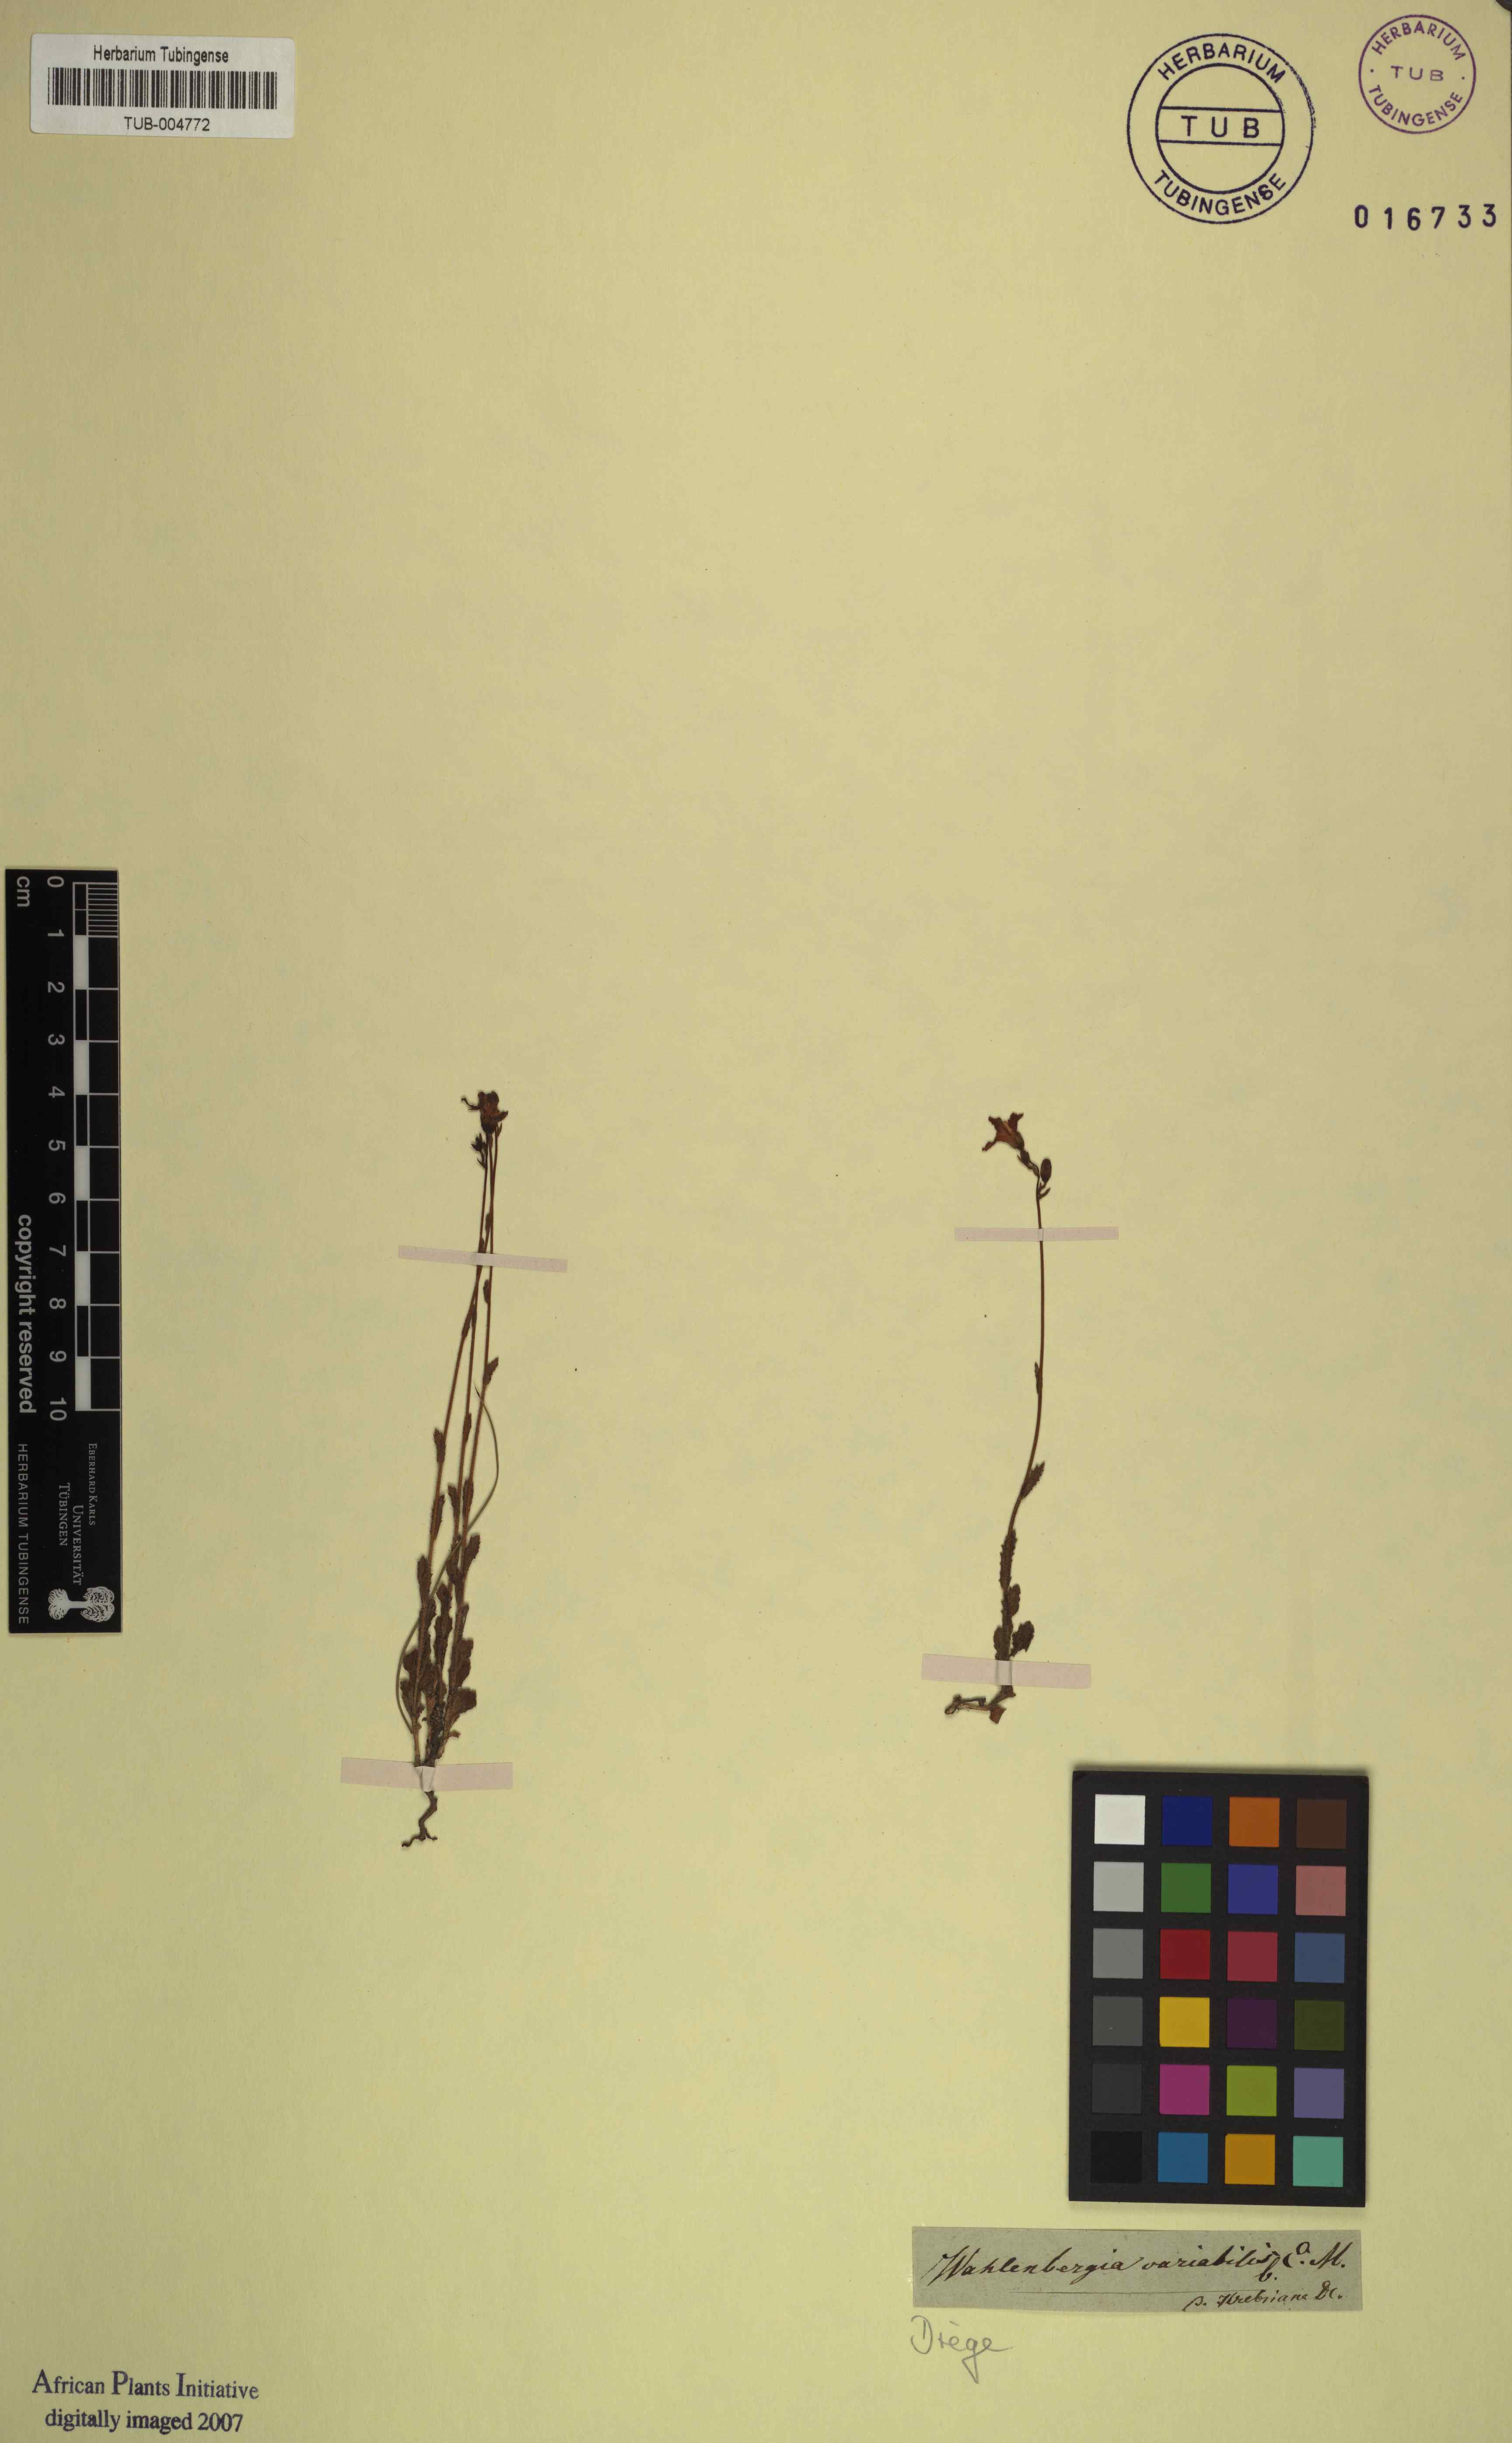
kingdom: Plantae
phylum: Tracheophyta
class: Magnoliopsida
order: Asterales
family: Campanulaceae
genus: Wahlenbergia
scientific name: Wahlenbergia krebsii
